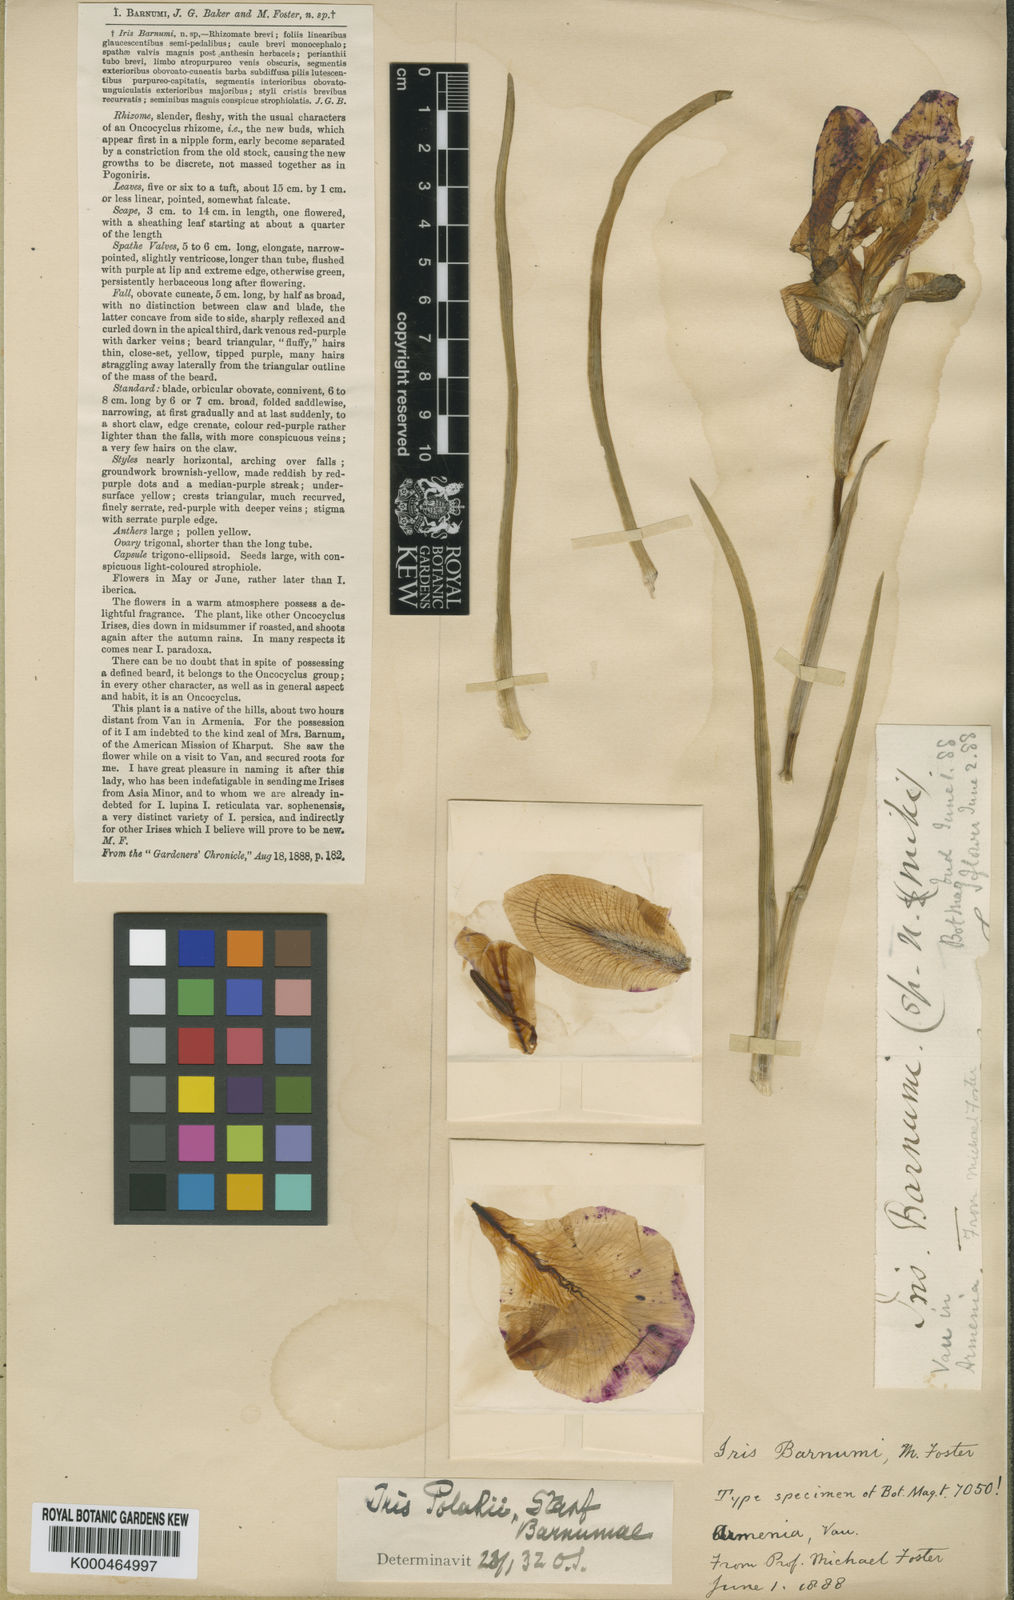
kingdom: Plantae
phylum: Tracheophyta
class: Liliopsida
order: Asparagales
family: Iridaceae
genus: Iris
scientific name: Iris barnumiae
